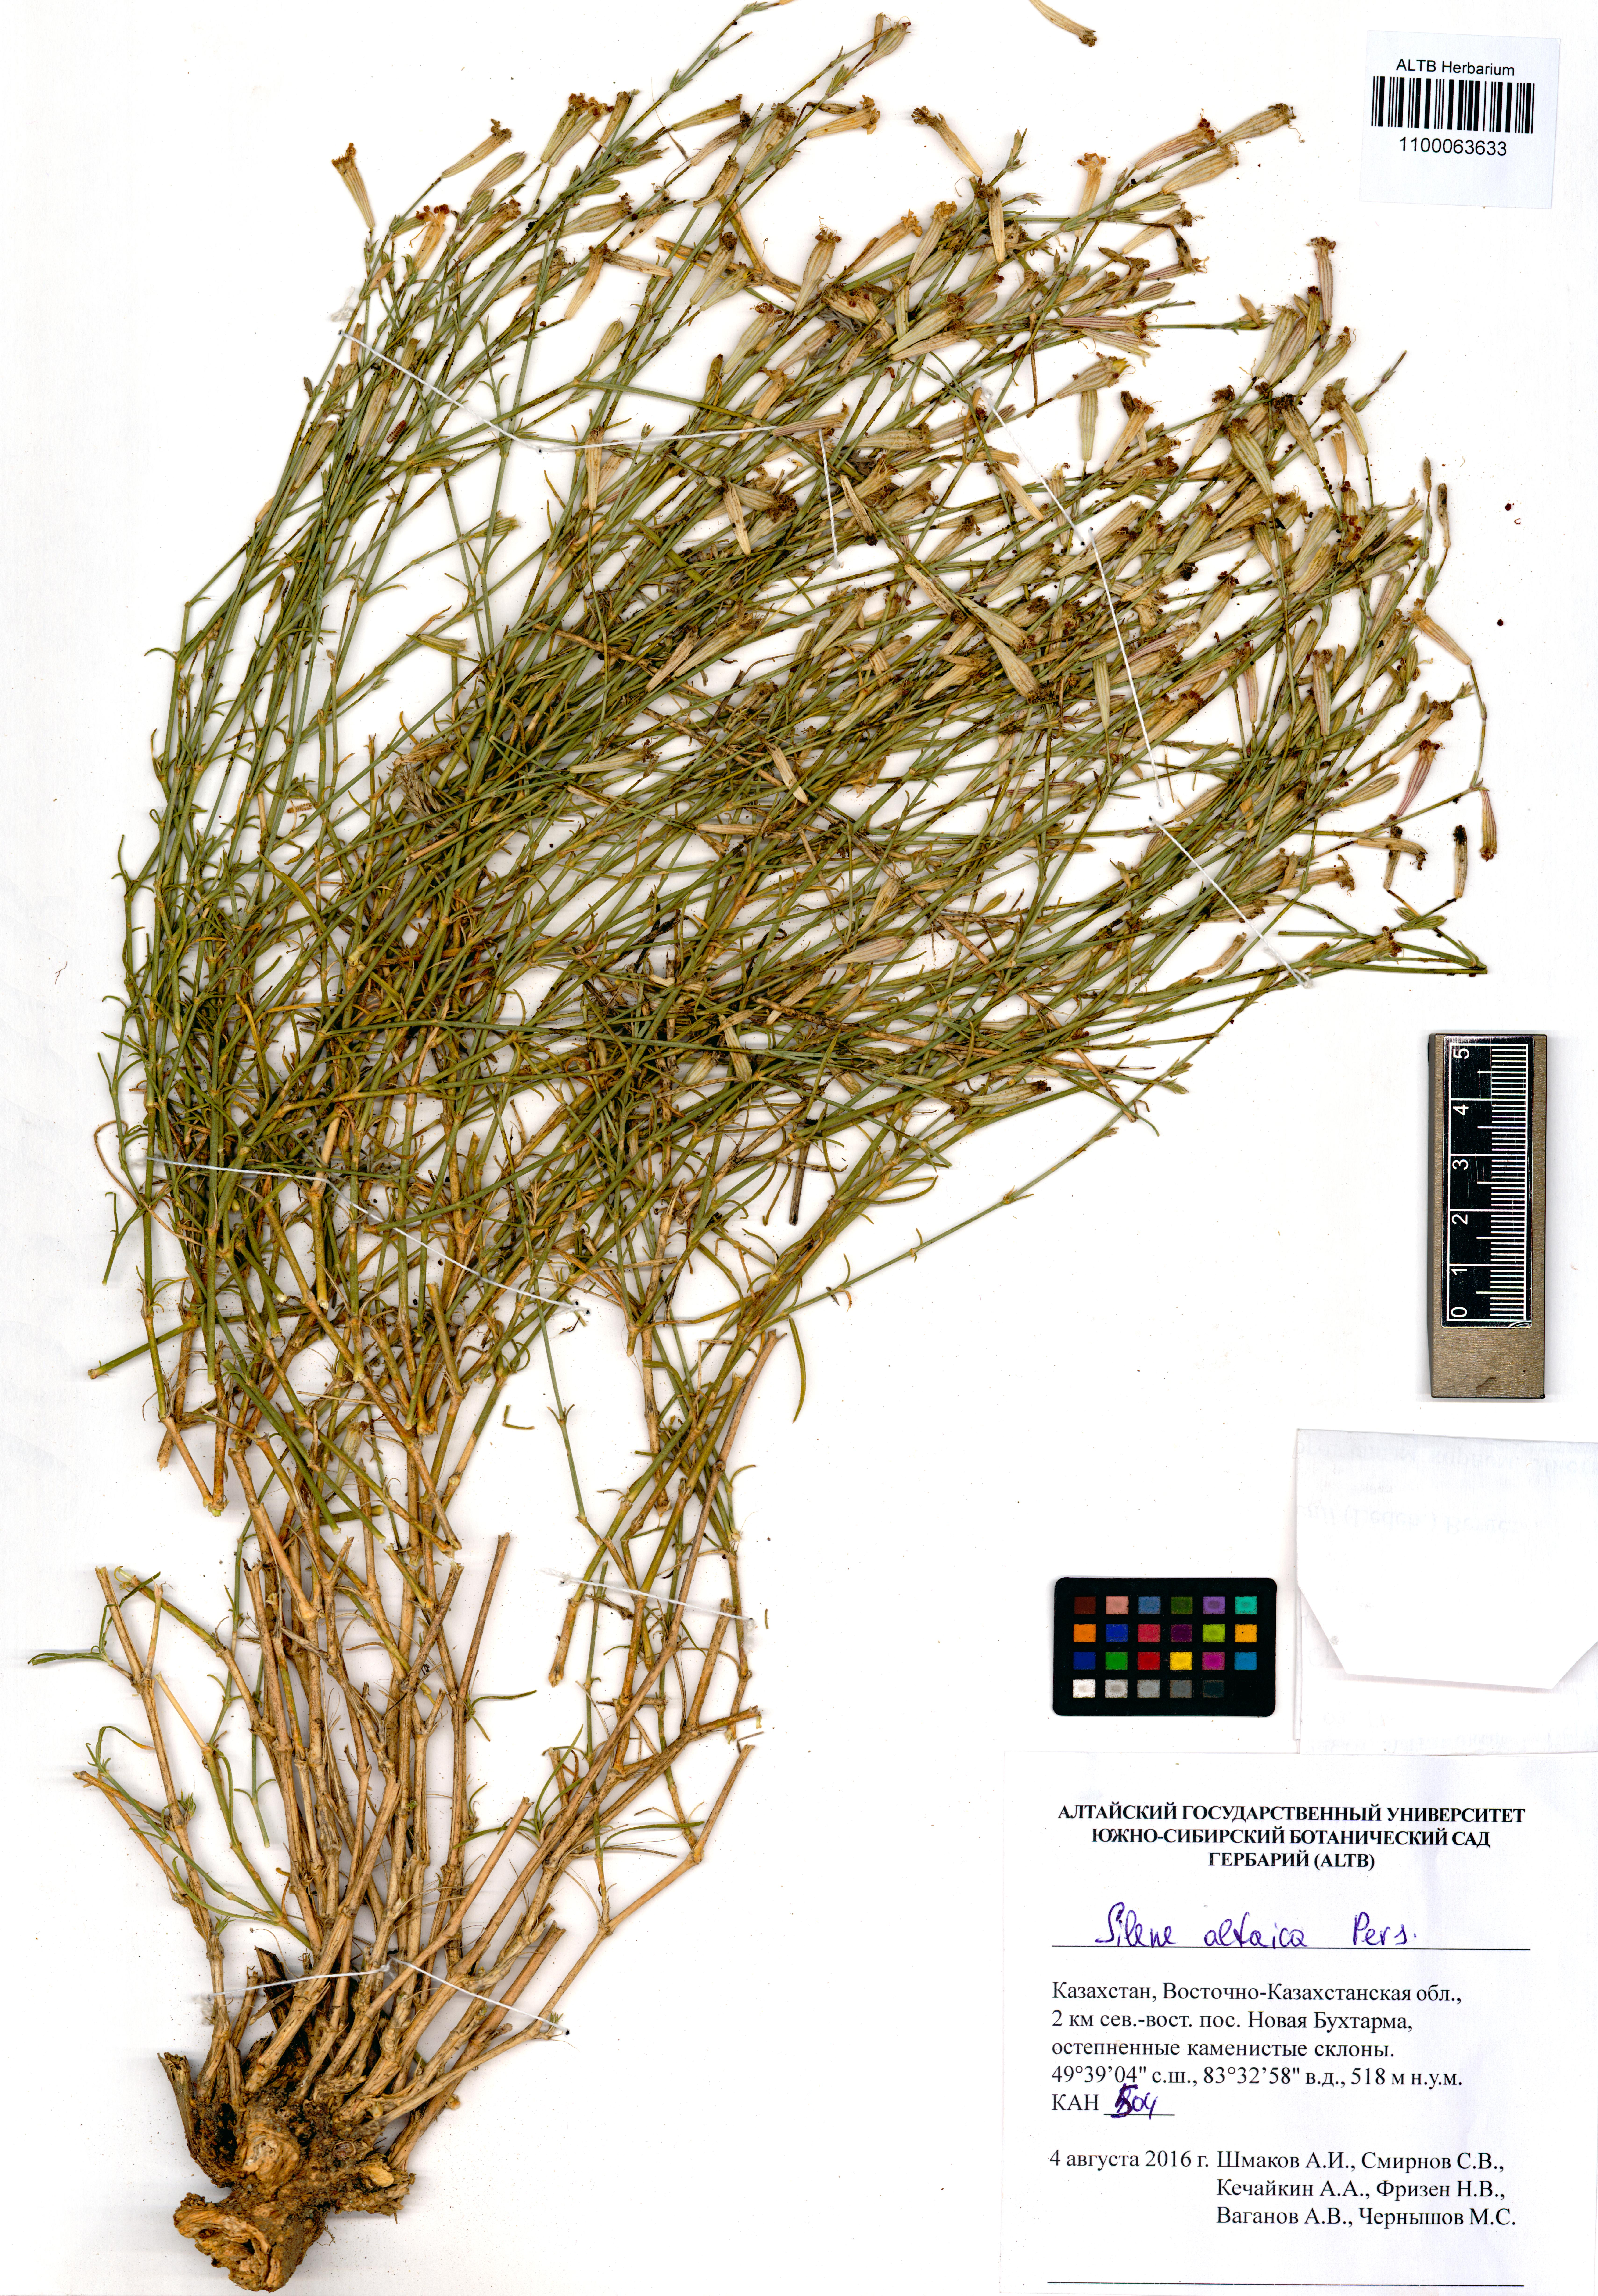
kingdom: Plantae
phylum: Tracheophyta
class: Magnoliopsida
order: Caryophyllales
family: Caryophyllaceae
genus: Silene
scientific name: Silene altaica
